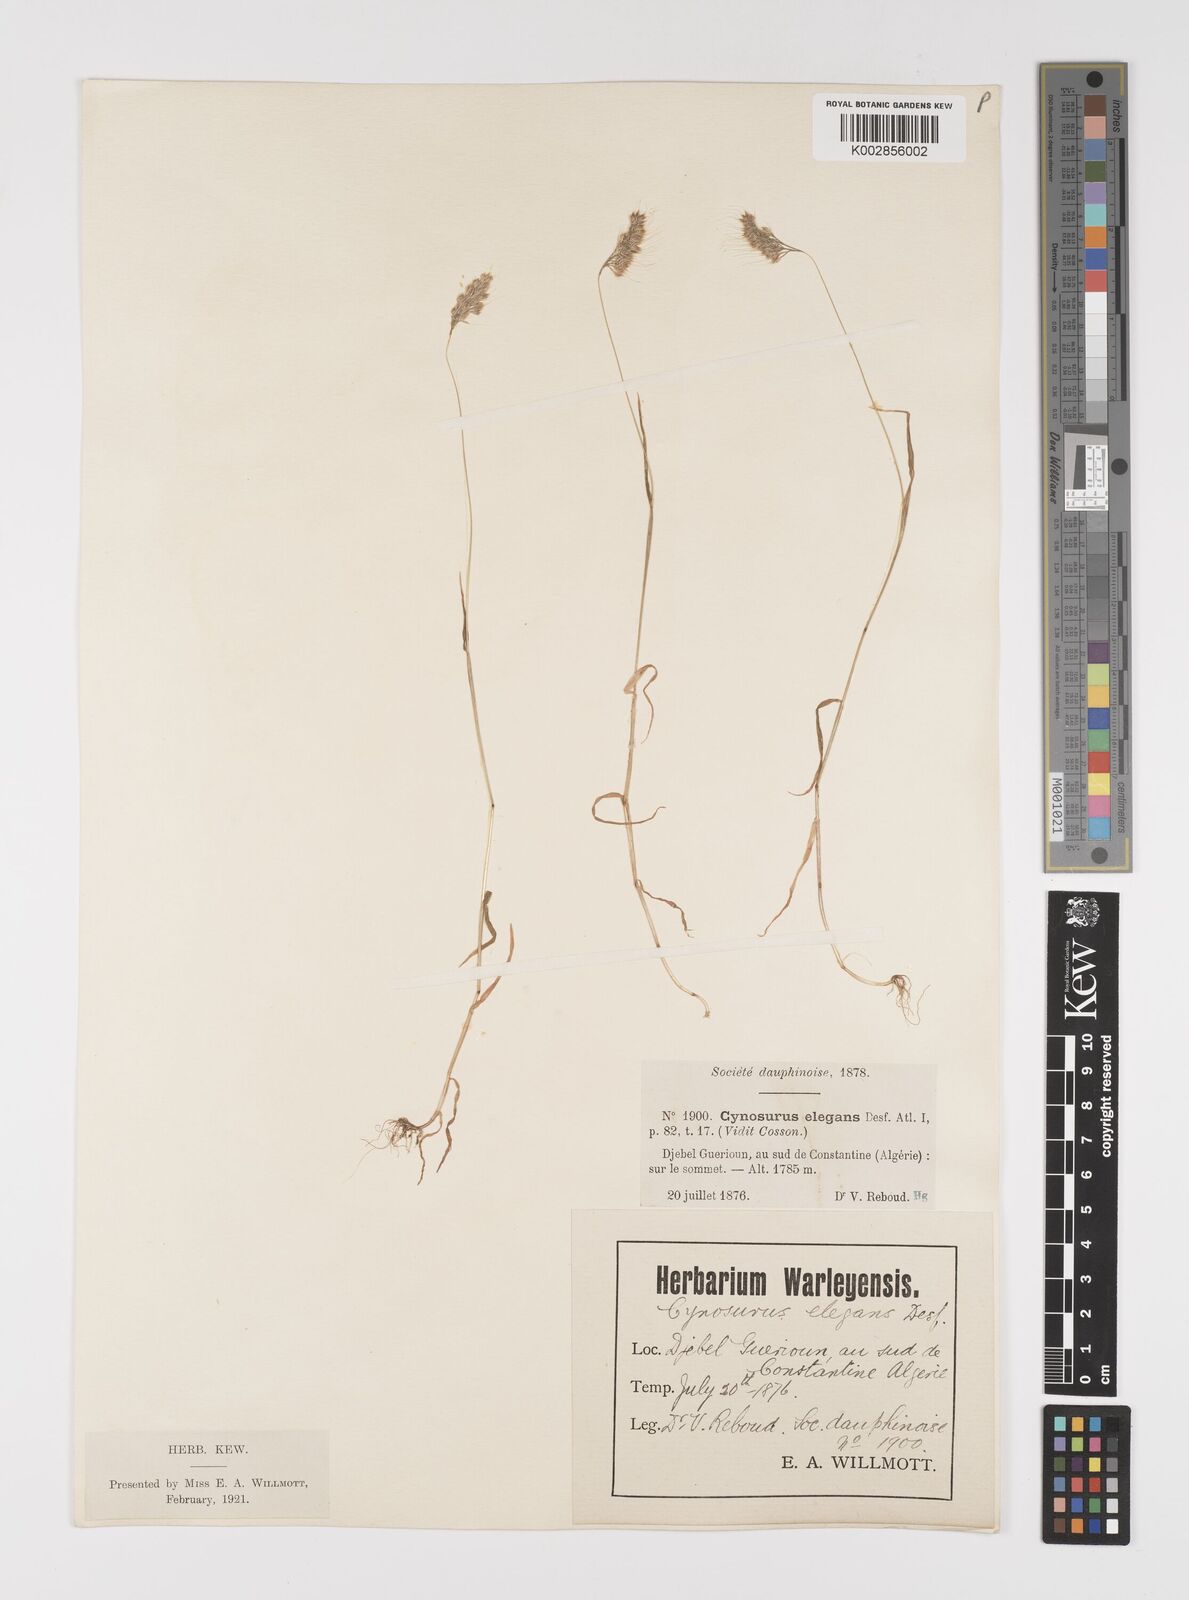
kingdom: Plantae
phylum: Tracheophyta
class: Liliopsida
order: Poales
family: Poaceae
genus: Cynosurus
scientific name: Cynosurus elegans
